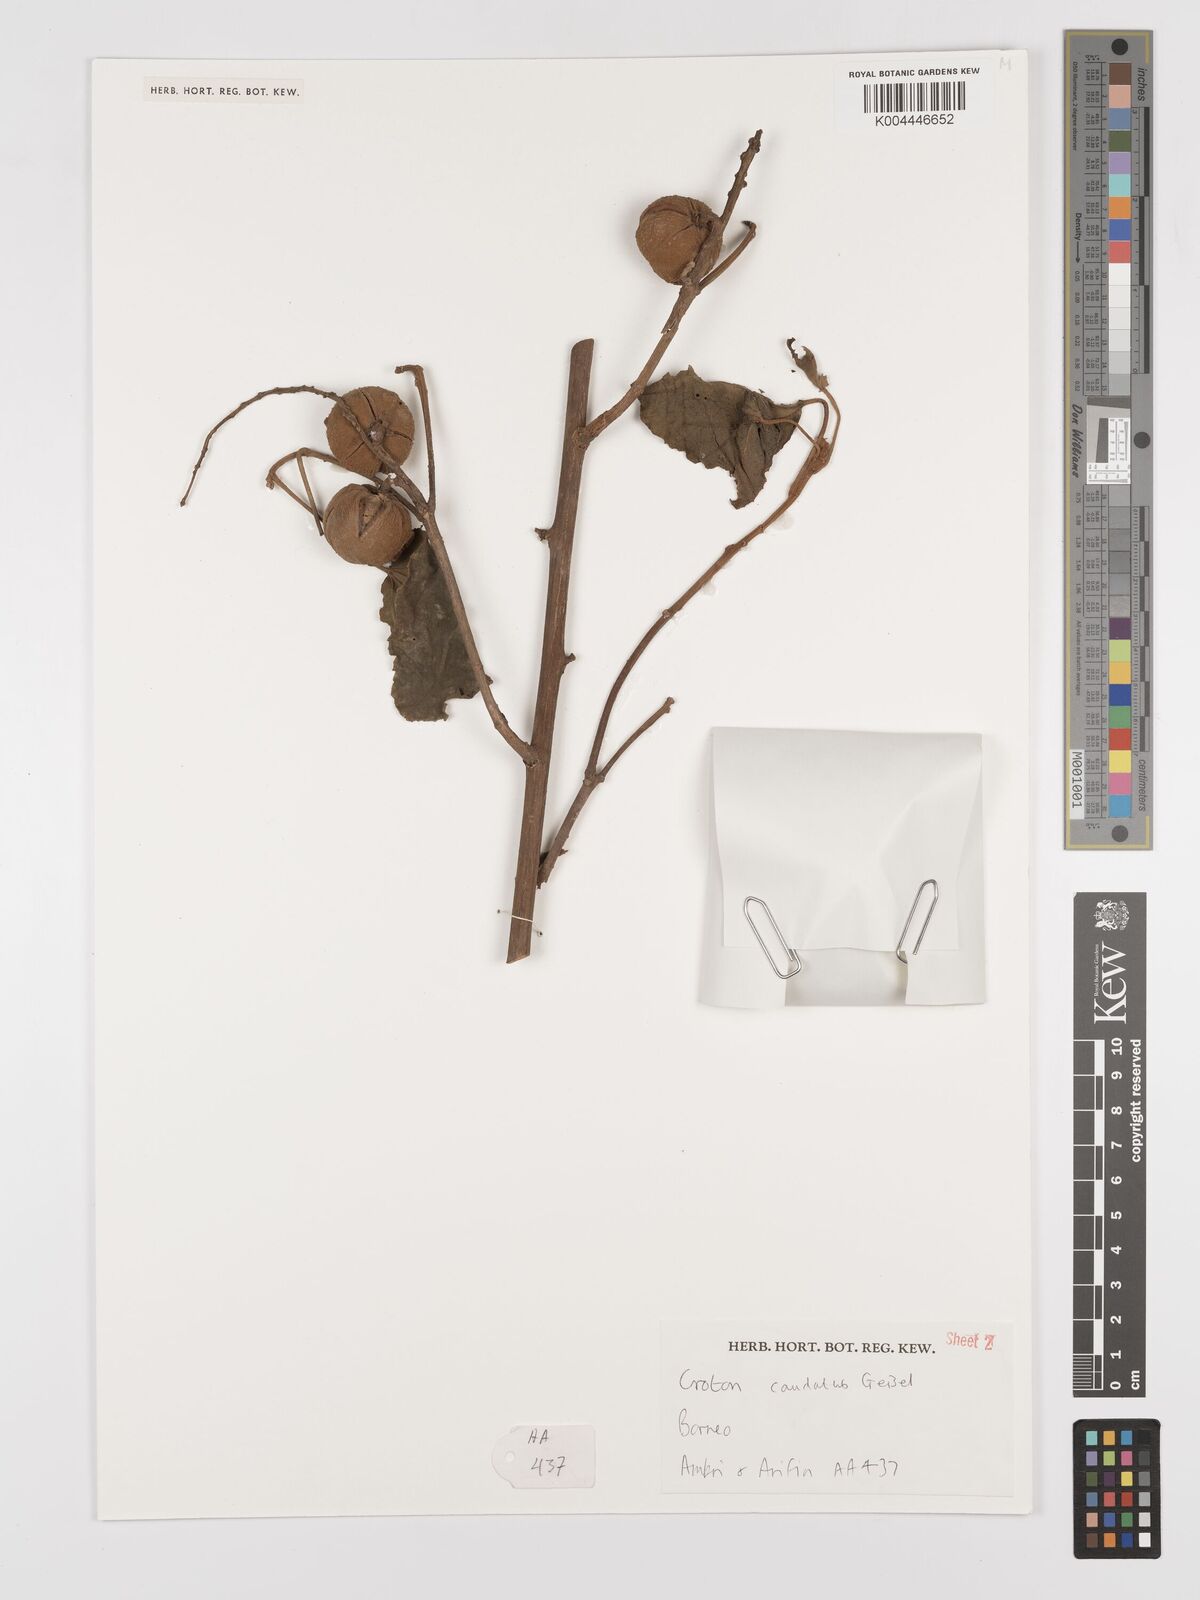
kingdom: Plantae
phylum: Tracheophyta
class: Magnoliopsida
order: Malpighiales
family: Euphorbiaceae
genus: Croton
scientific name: Croton caudatus
